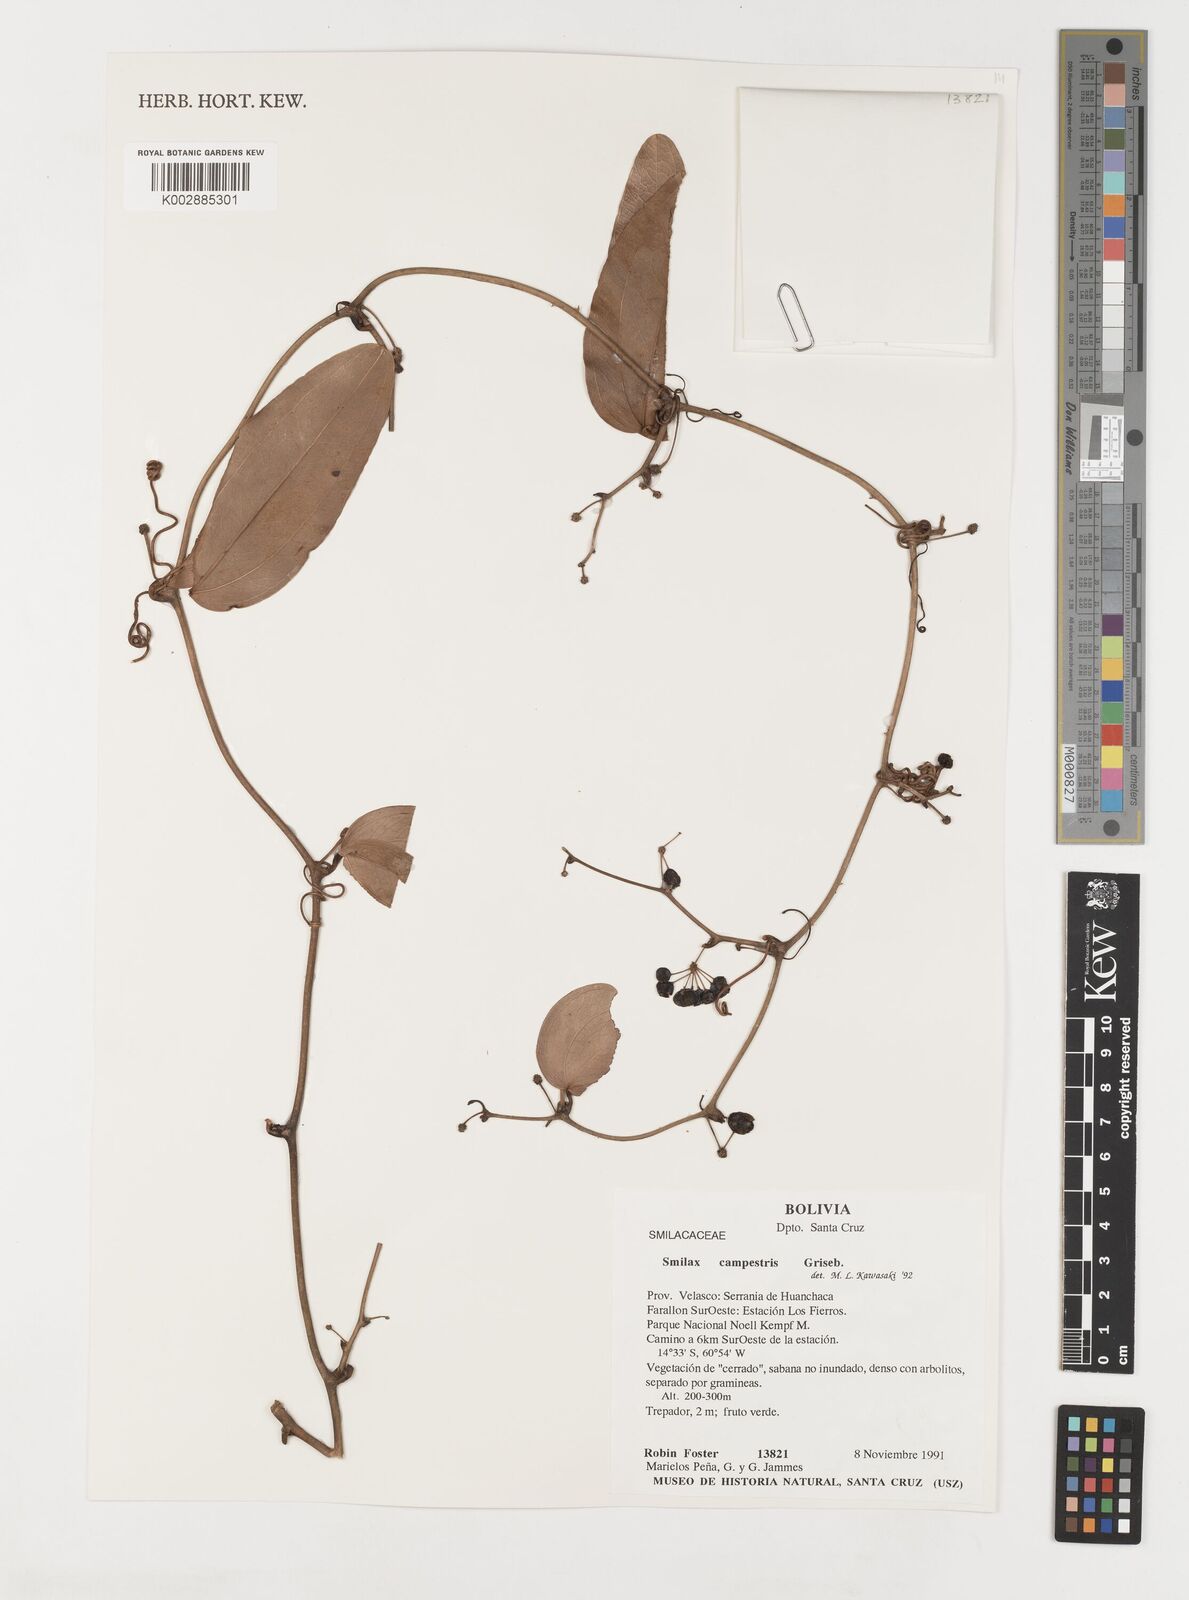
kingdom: Plantae
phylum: Tracheophyta
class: Liliopsida
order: Liliales
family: Smilacaceae
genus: Smilax
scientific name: Smilax campestris
